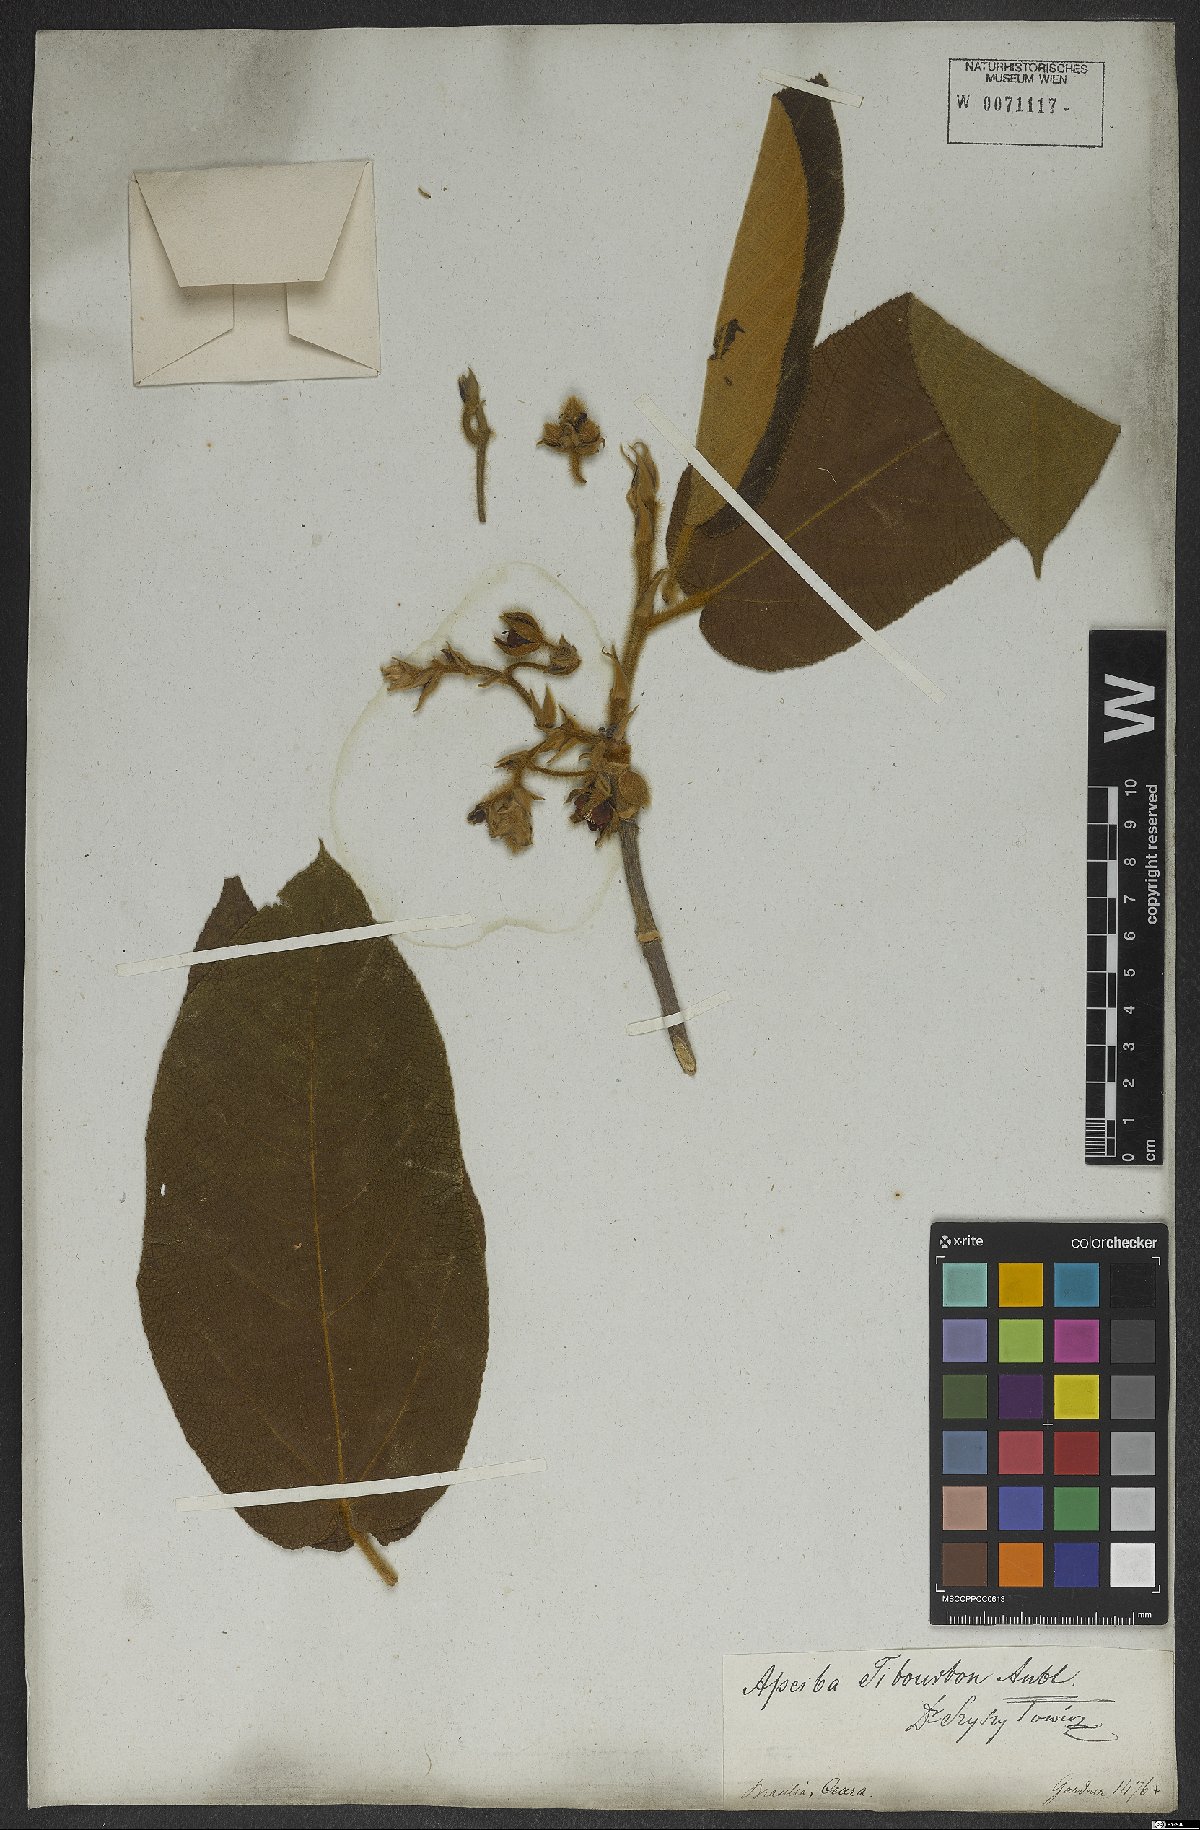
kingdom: Plantae
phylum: Tracheophyta
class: Magnoliopsida
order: Malvales
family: Malvaceae
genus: Apeiba
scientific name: Apeiba tibourbou
